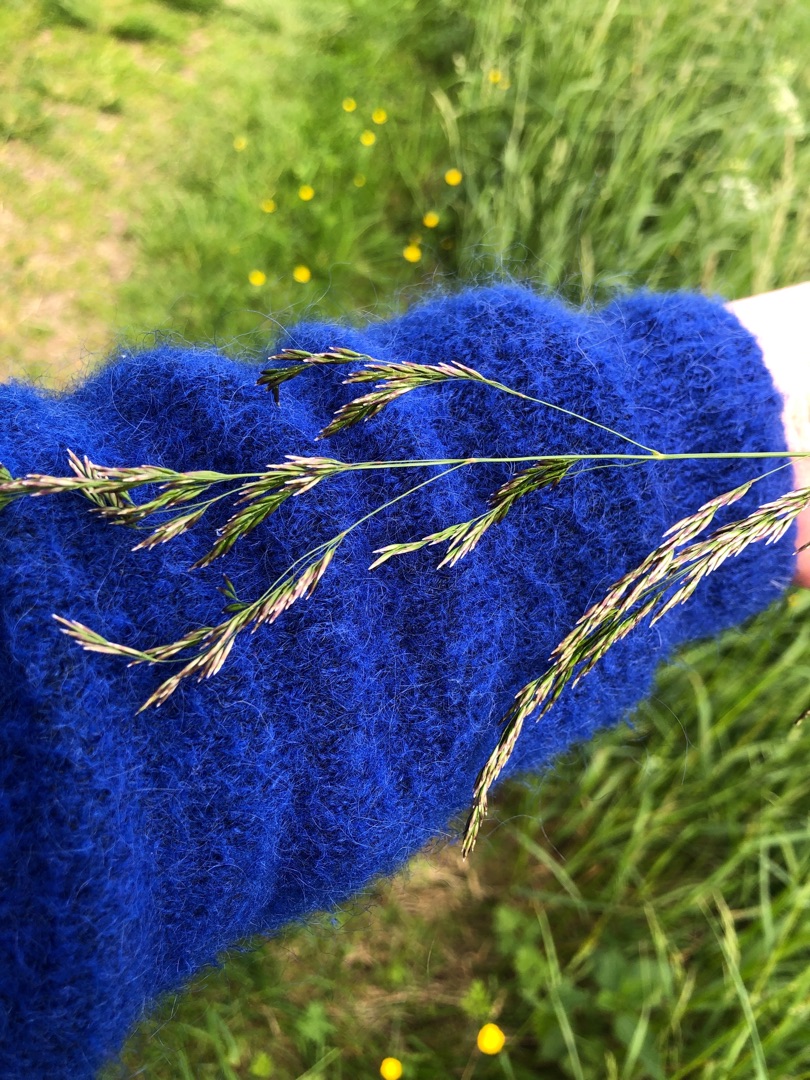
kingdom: Plantae
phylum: Tracheophyta
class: Liliopsida
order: Poales
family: Poaceae
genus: Deschampsia
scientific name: Deschampsia cespitosa
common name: Mose-bunke
